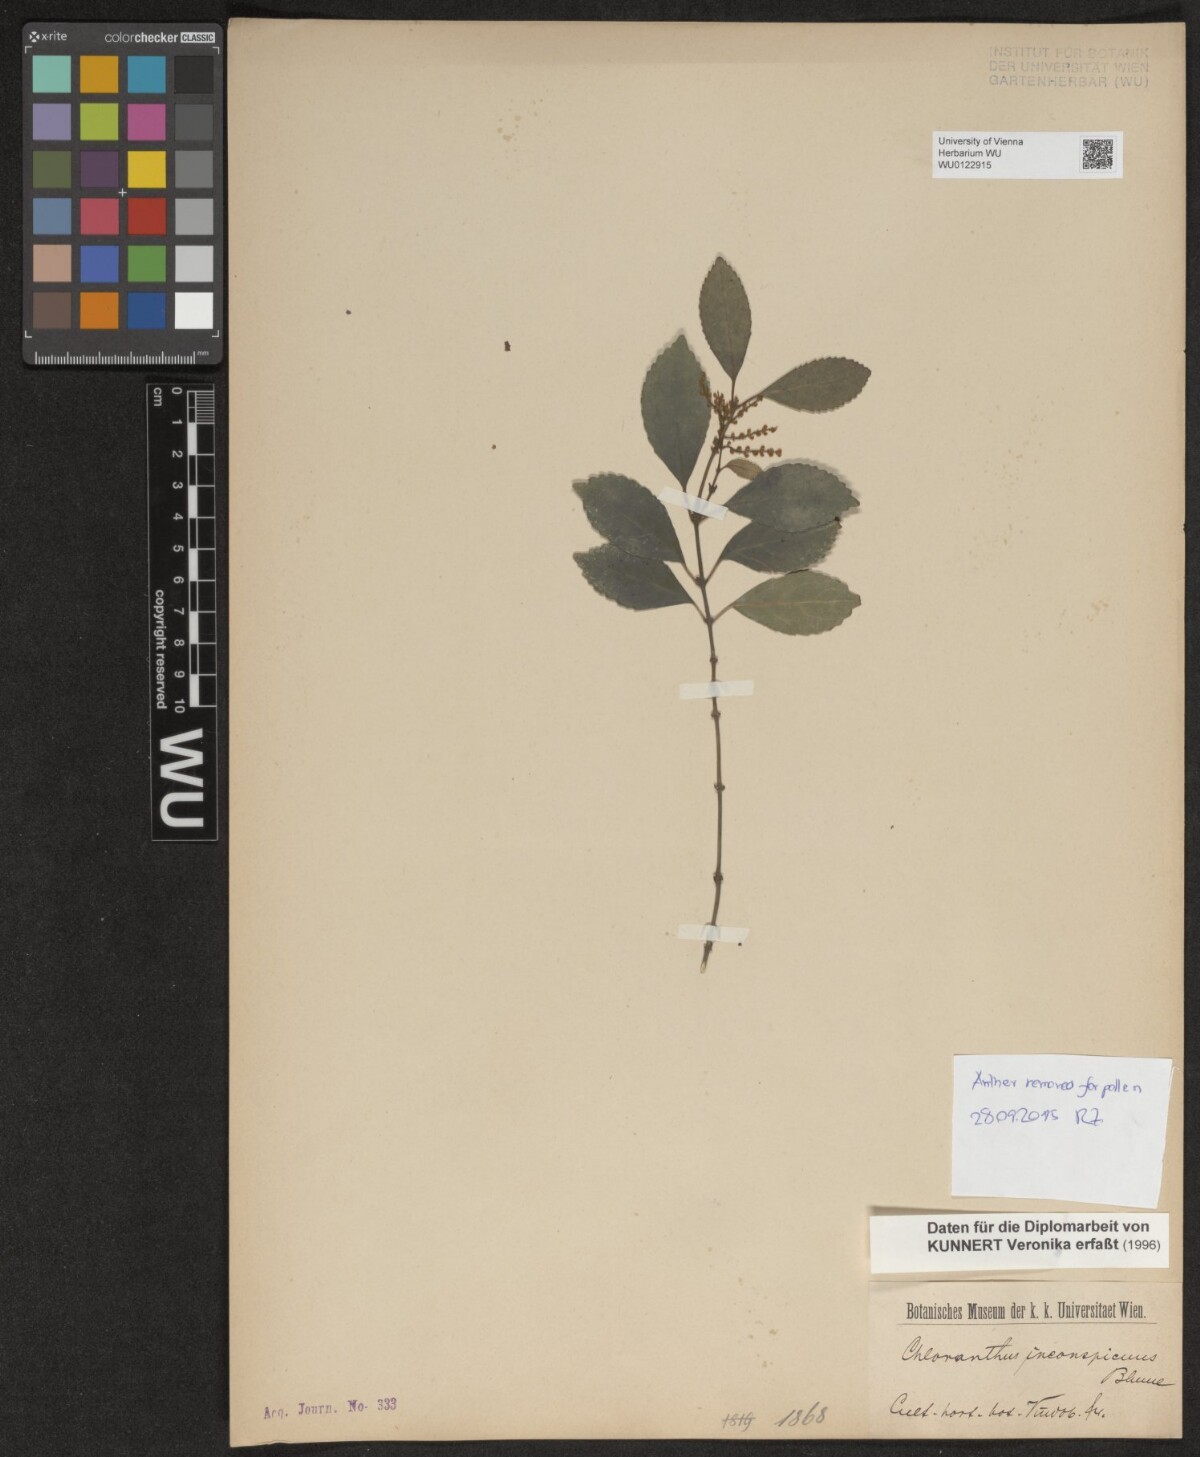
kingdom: Plantae
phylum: Tracheophyta
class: Magnoliopsida
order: Chloranthales
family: Chloranthaceae
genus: Chloranthus
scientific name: Chloranthus spicatus
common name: Chulantree
